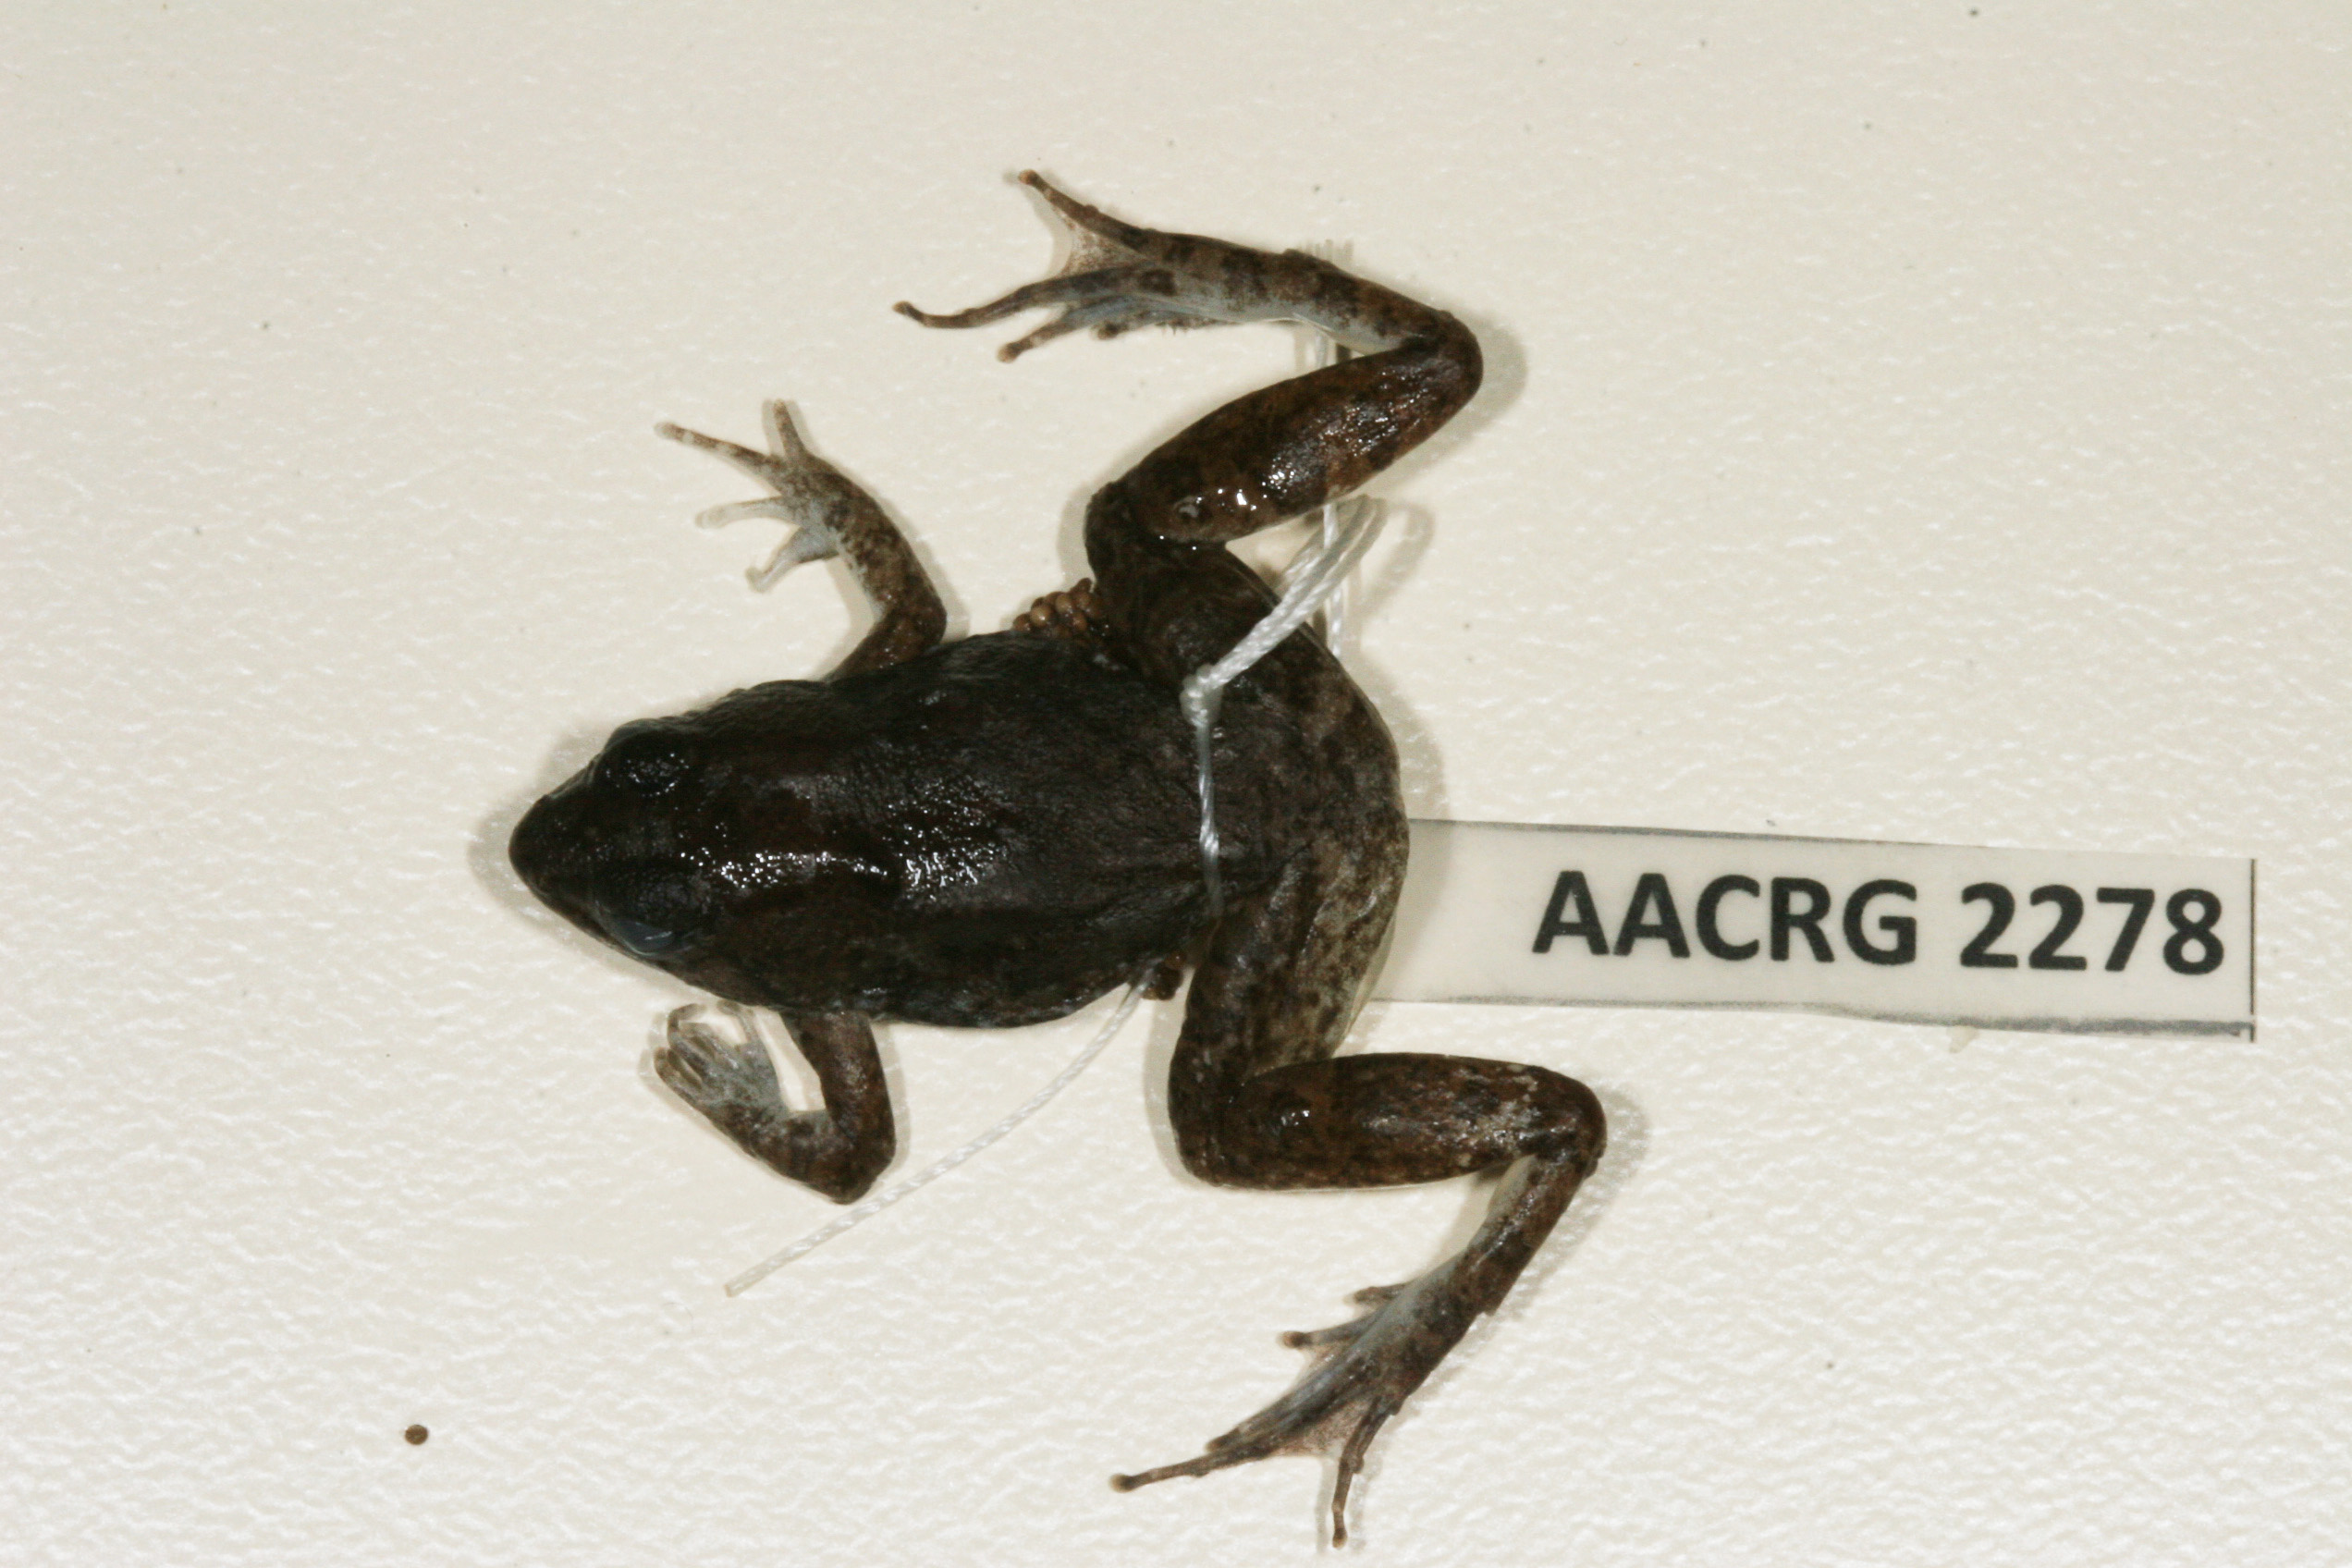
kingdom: Animalia
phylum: Chordata
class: Amphibia
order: Anura
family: Phrynobatrachidae
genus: Phrynobatrachus
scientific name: Phrynobatrachus natalensis
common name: Snoring puddle frog
